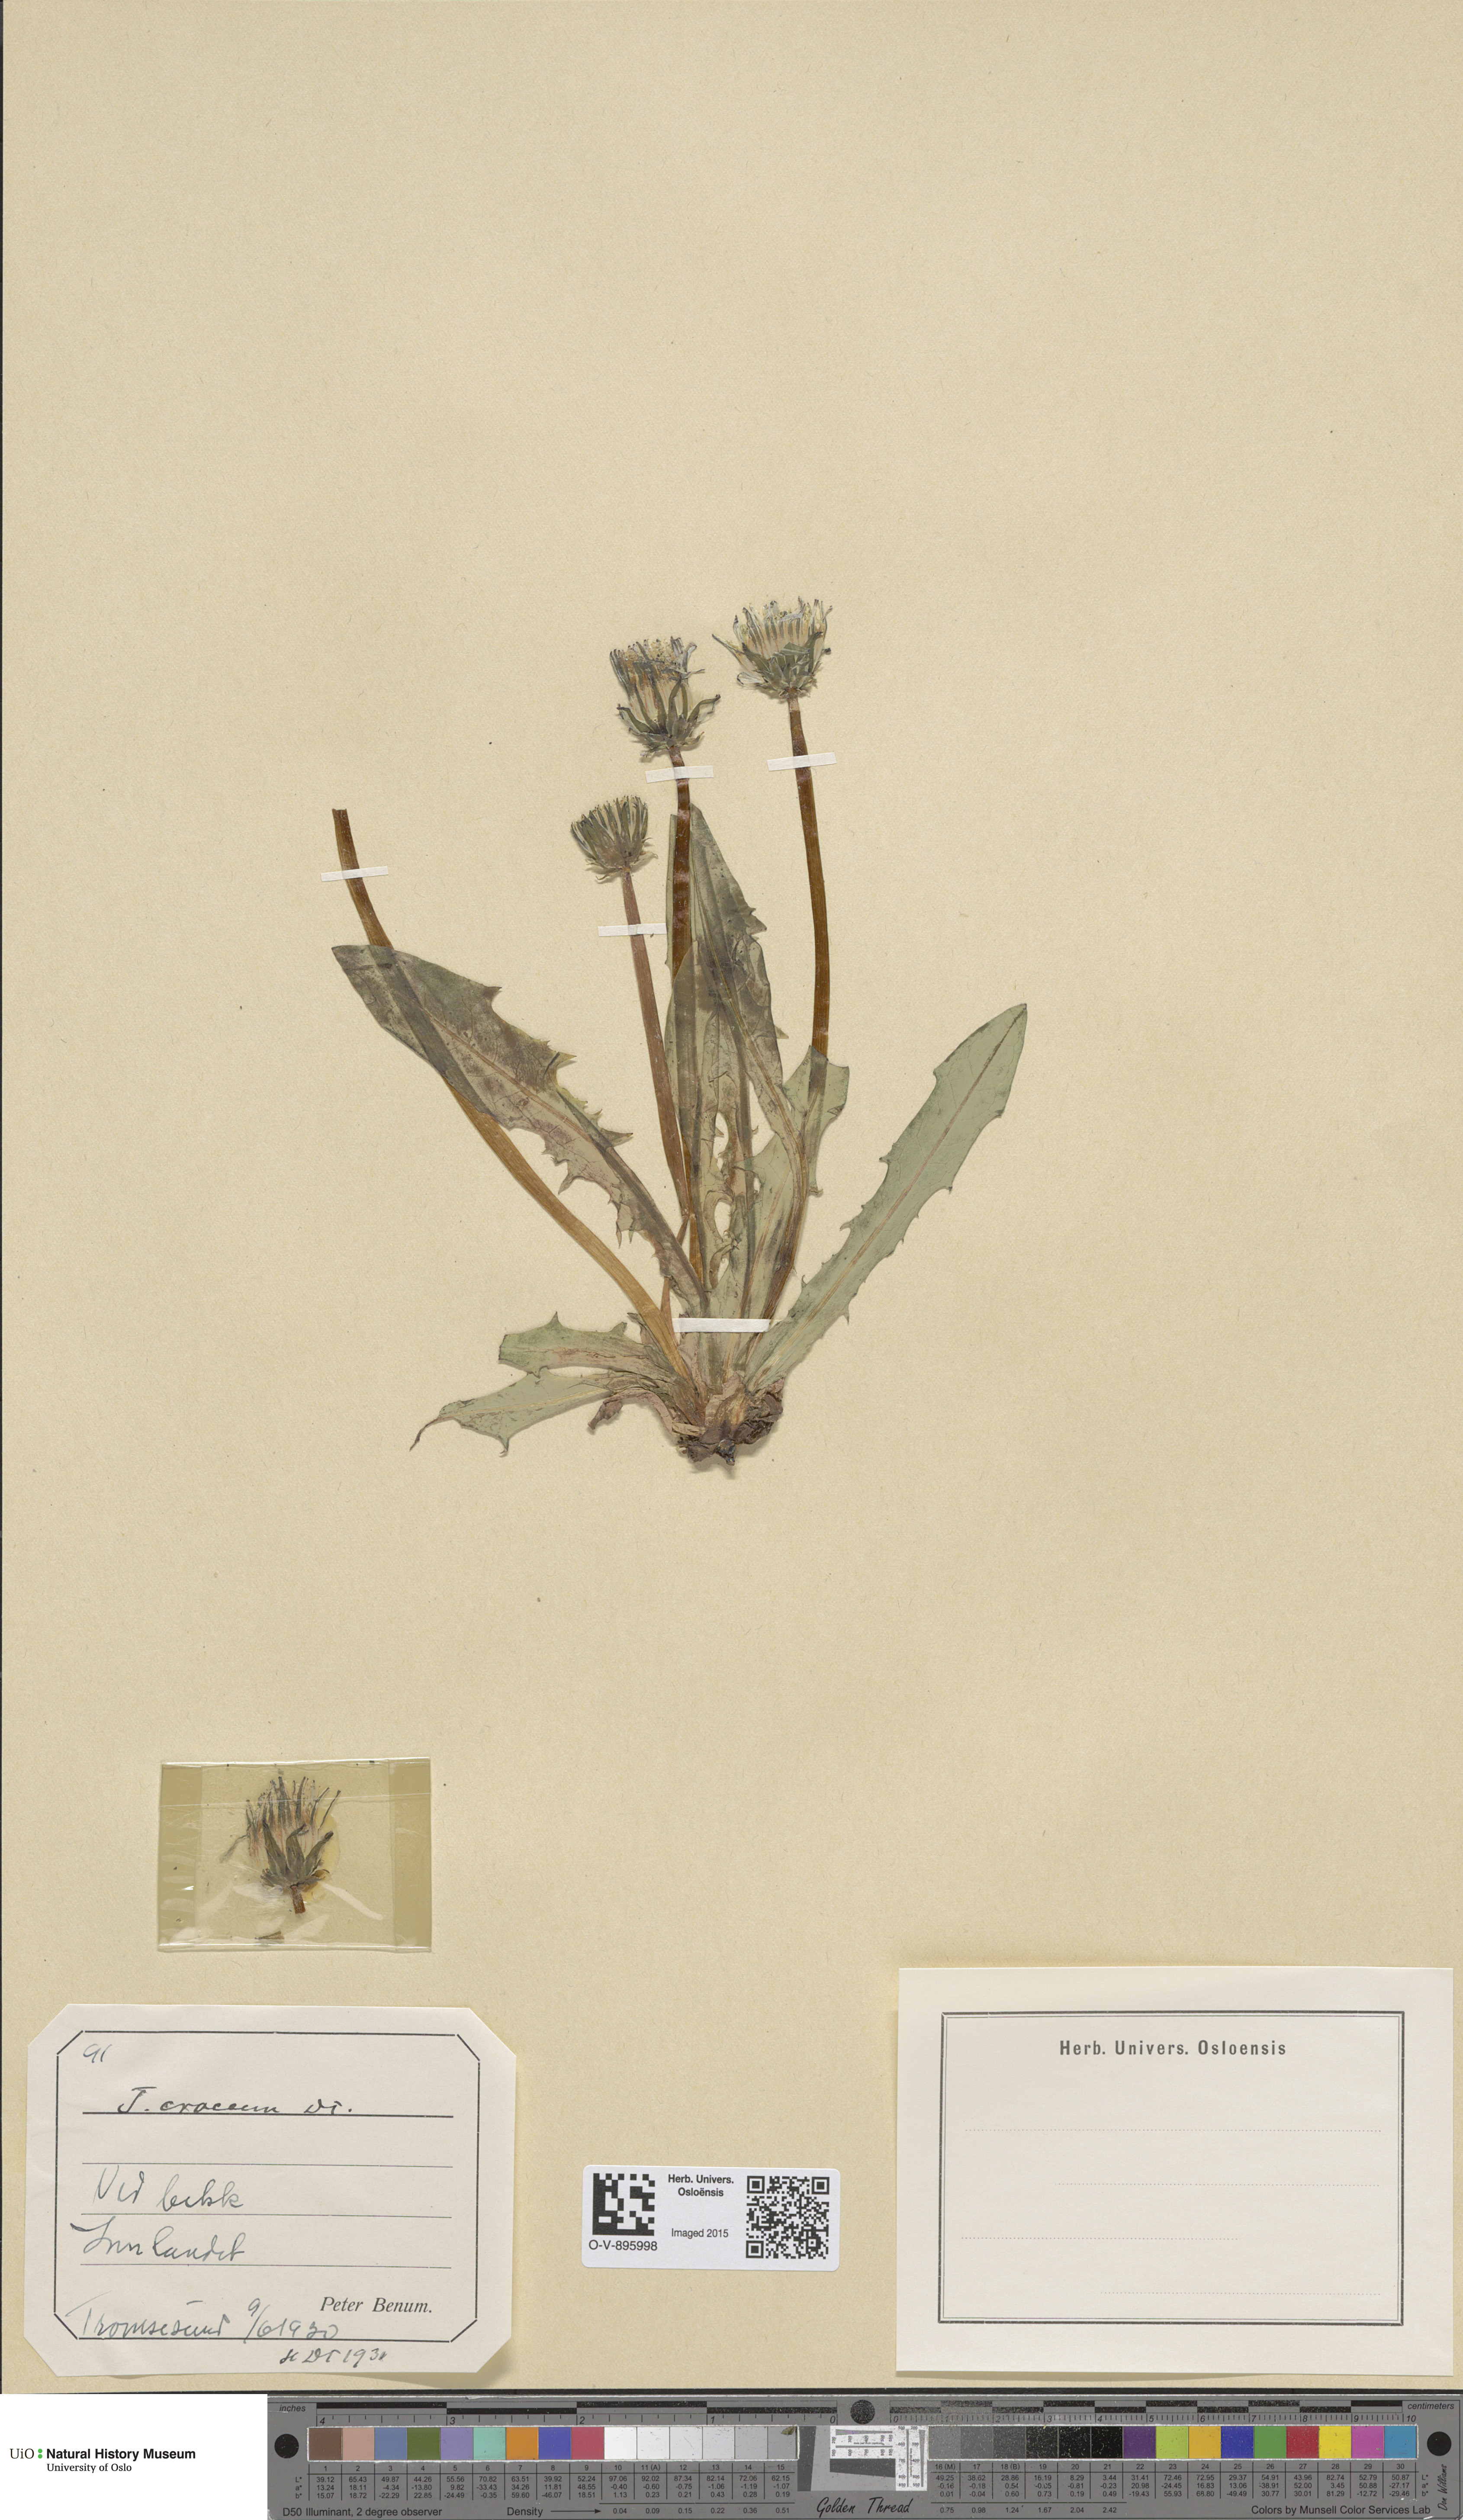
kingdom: Plantae
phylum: Tracheophyta
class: Magnoliopsida
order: Asterales
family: Asteraceae
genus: Taraxacum
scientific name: Taraxacum croceum
